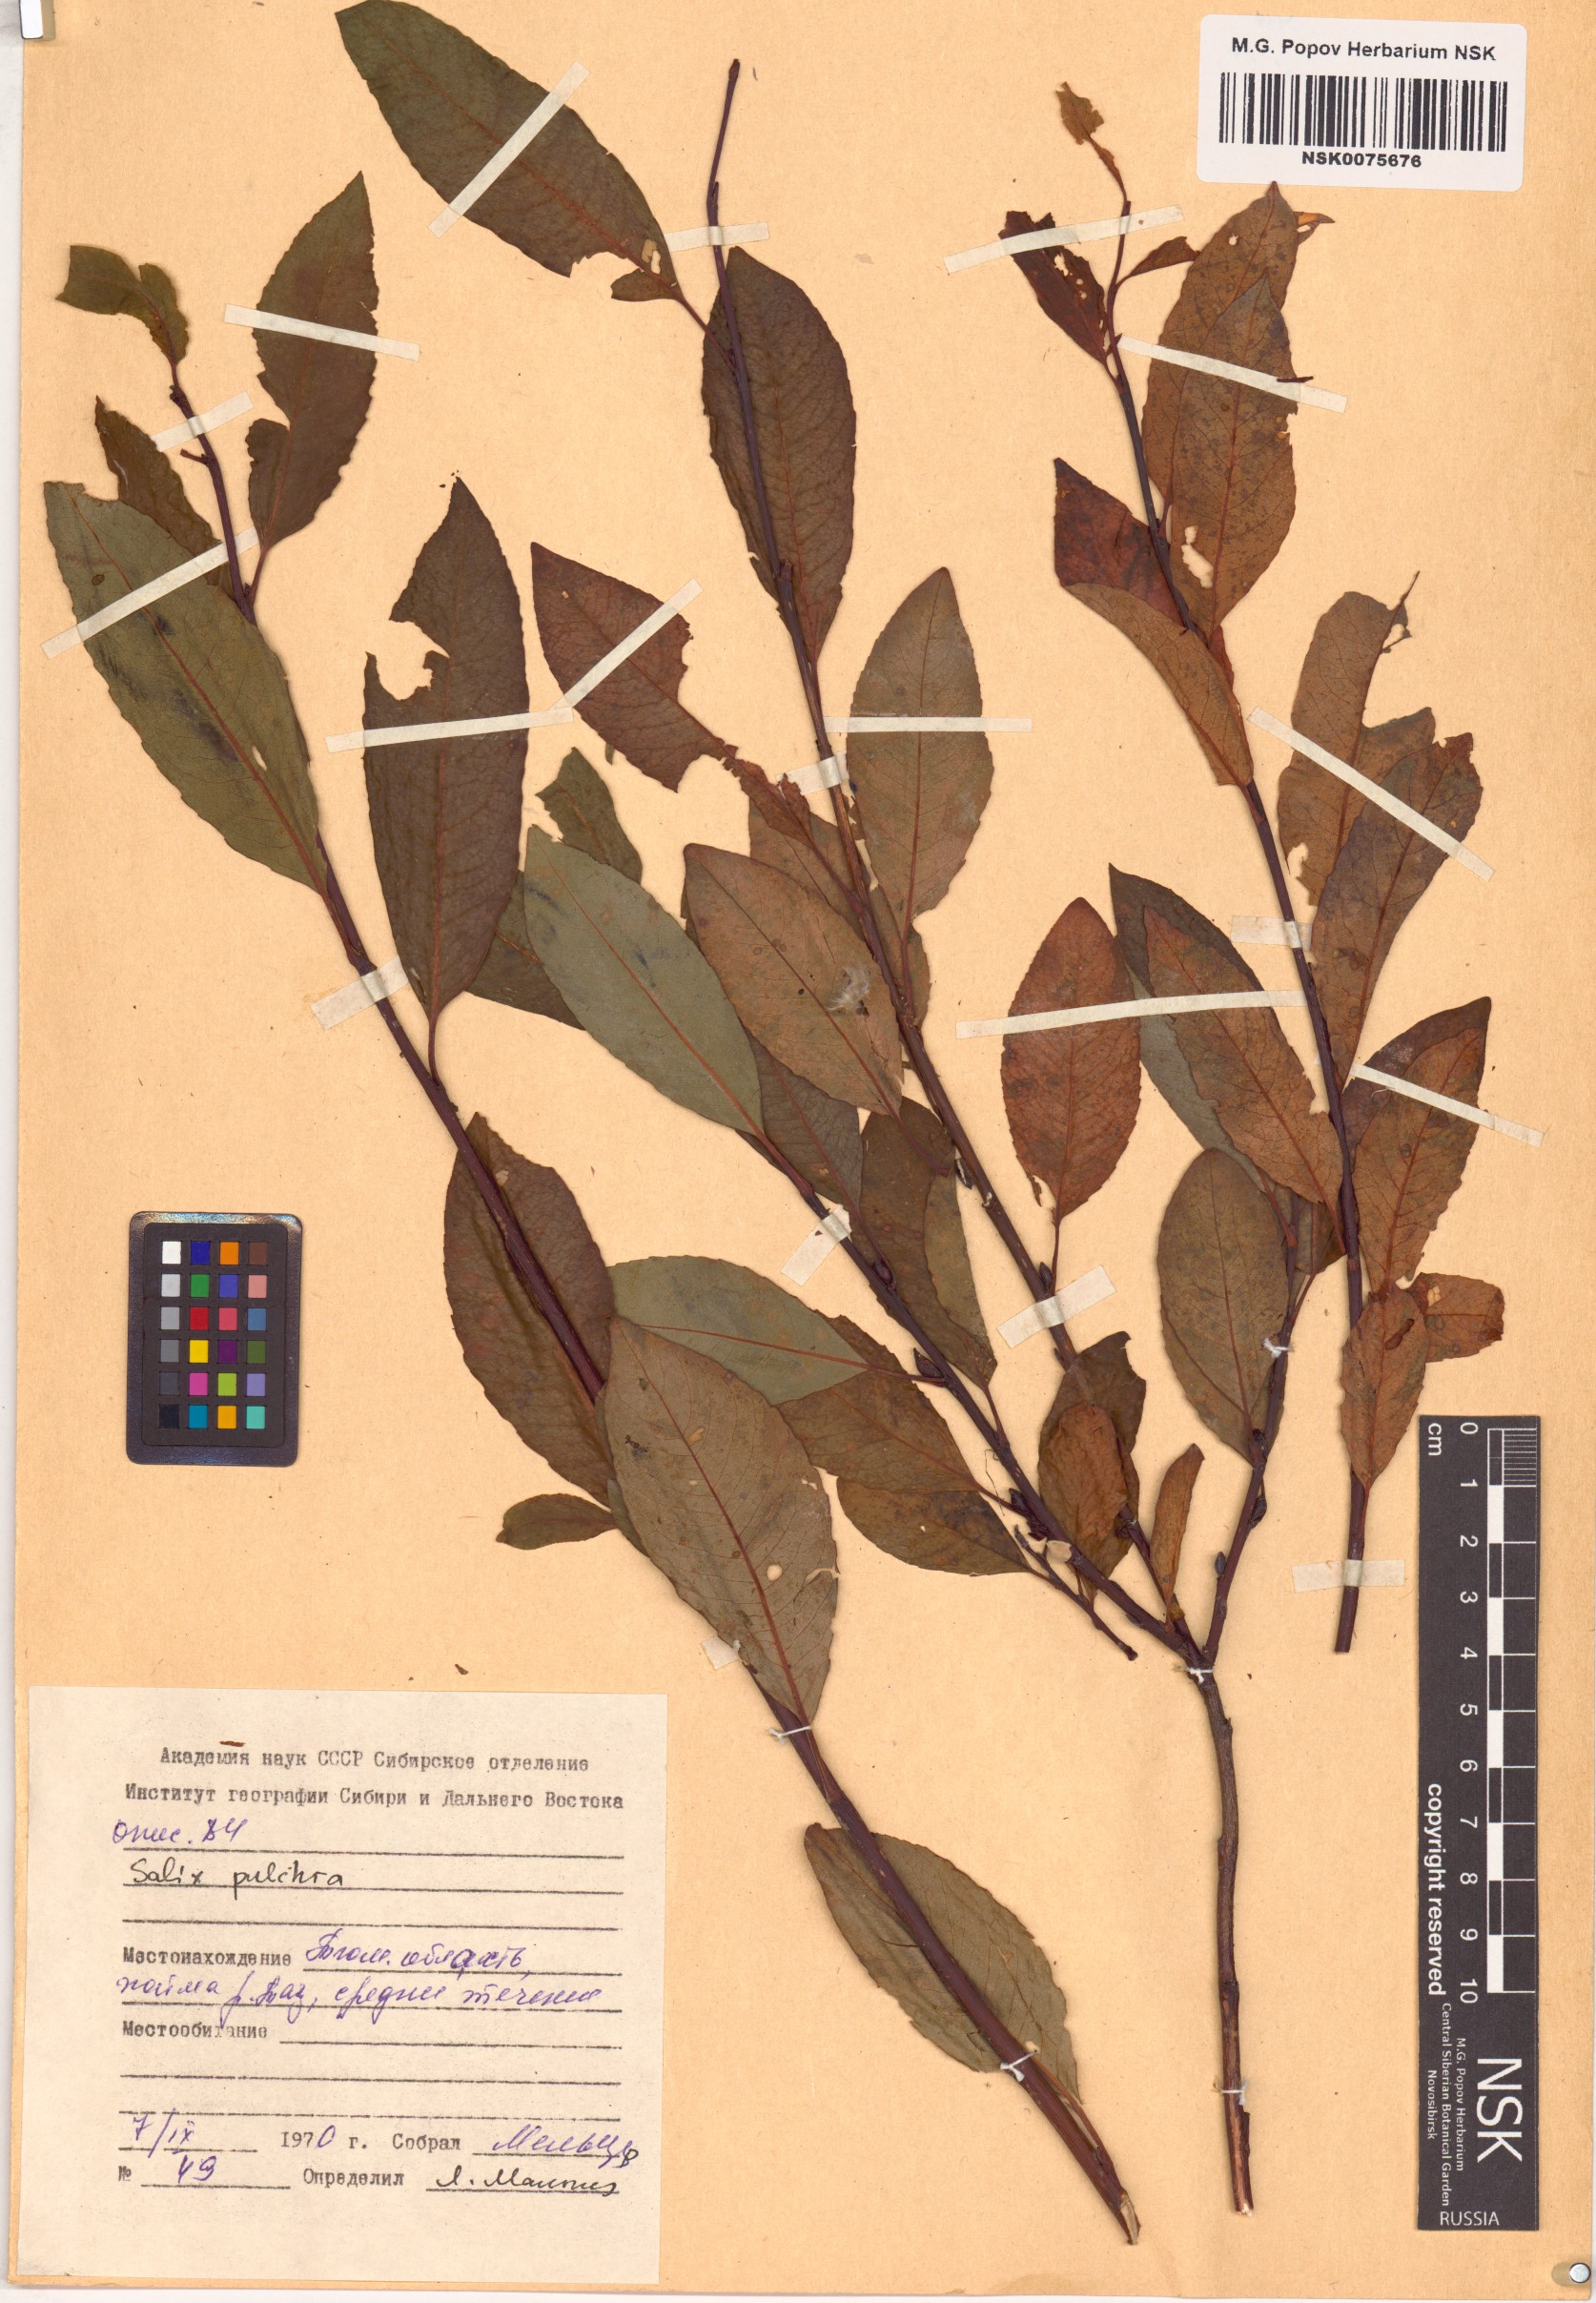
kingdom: Plantae
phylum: Tracheophyta
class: Magnoliopsida
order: Malpighiales
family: Salicaceae
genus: Salix
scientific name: Salix pulchra
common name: Diamond-leaved willow
